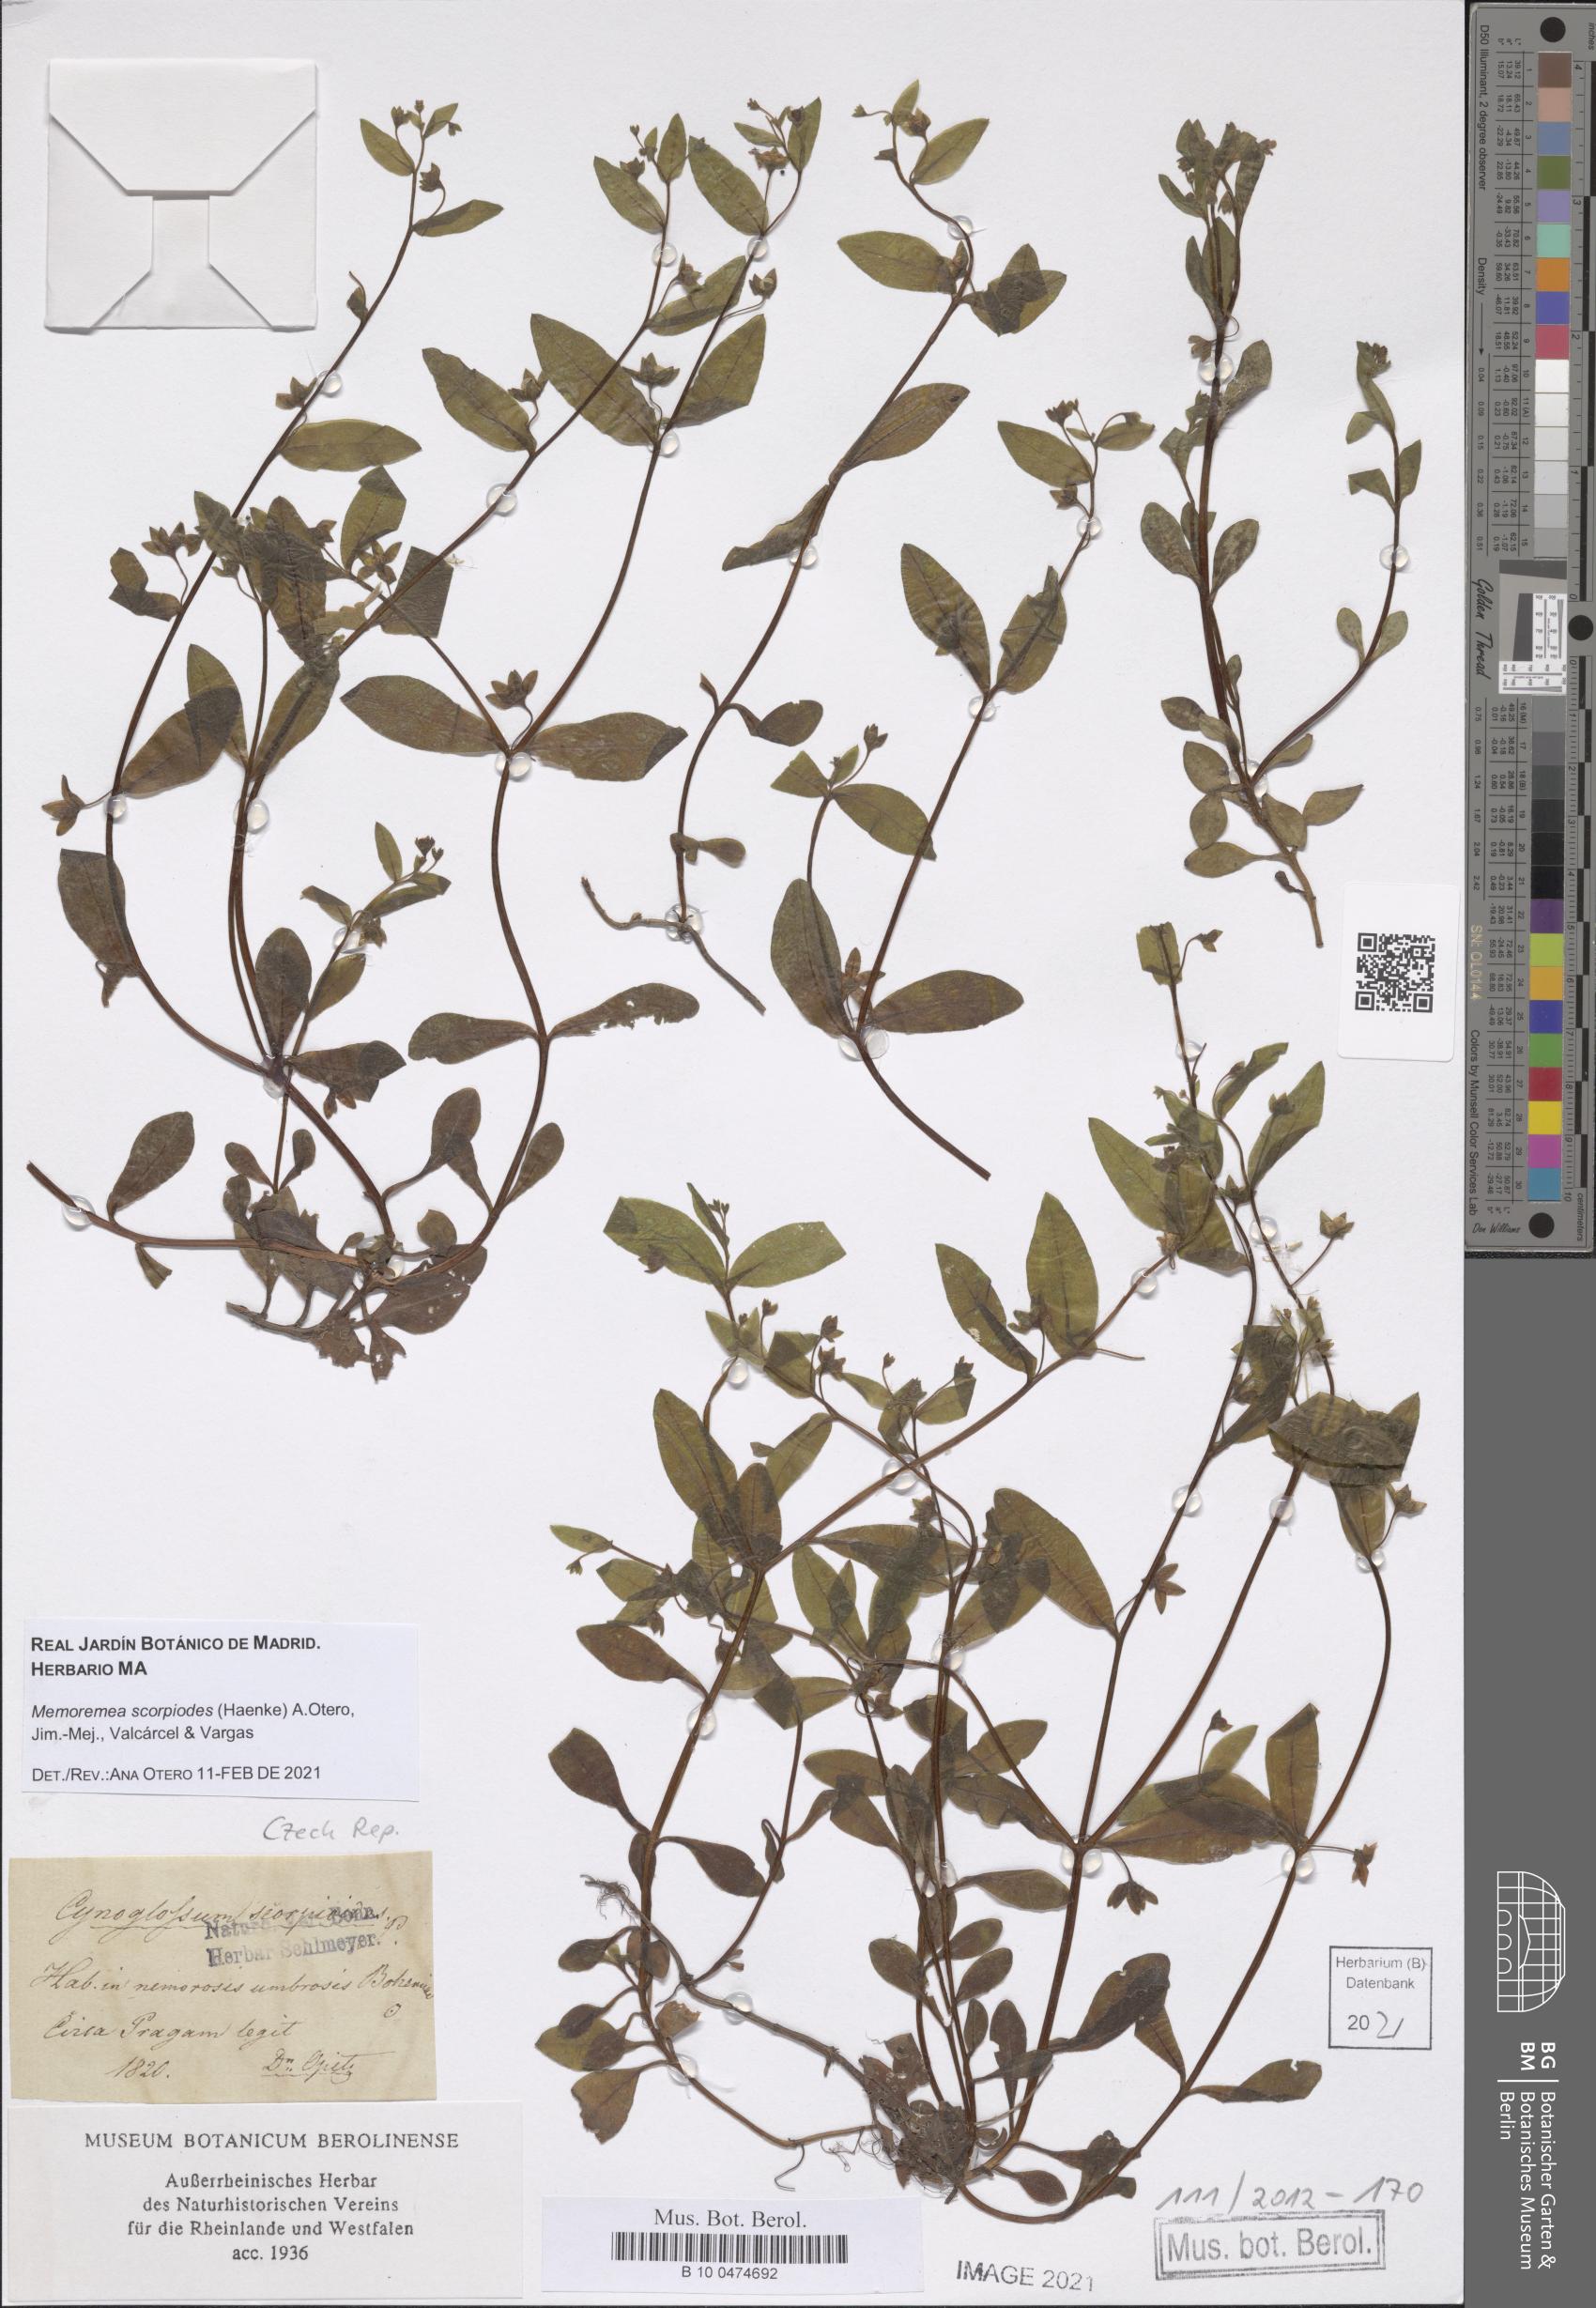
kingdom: Plantae
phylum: Tracheophyta
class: Magnoliopsida
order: Boraginales
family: Boraginaceae
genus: Memoremea
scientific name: Memoremea scorpioides
